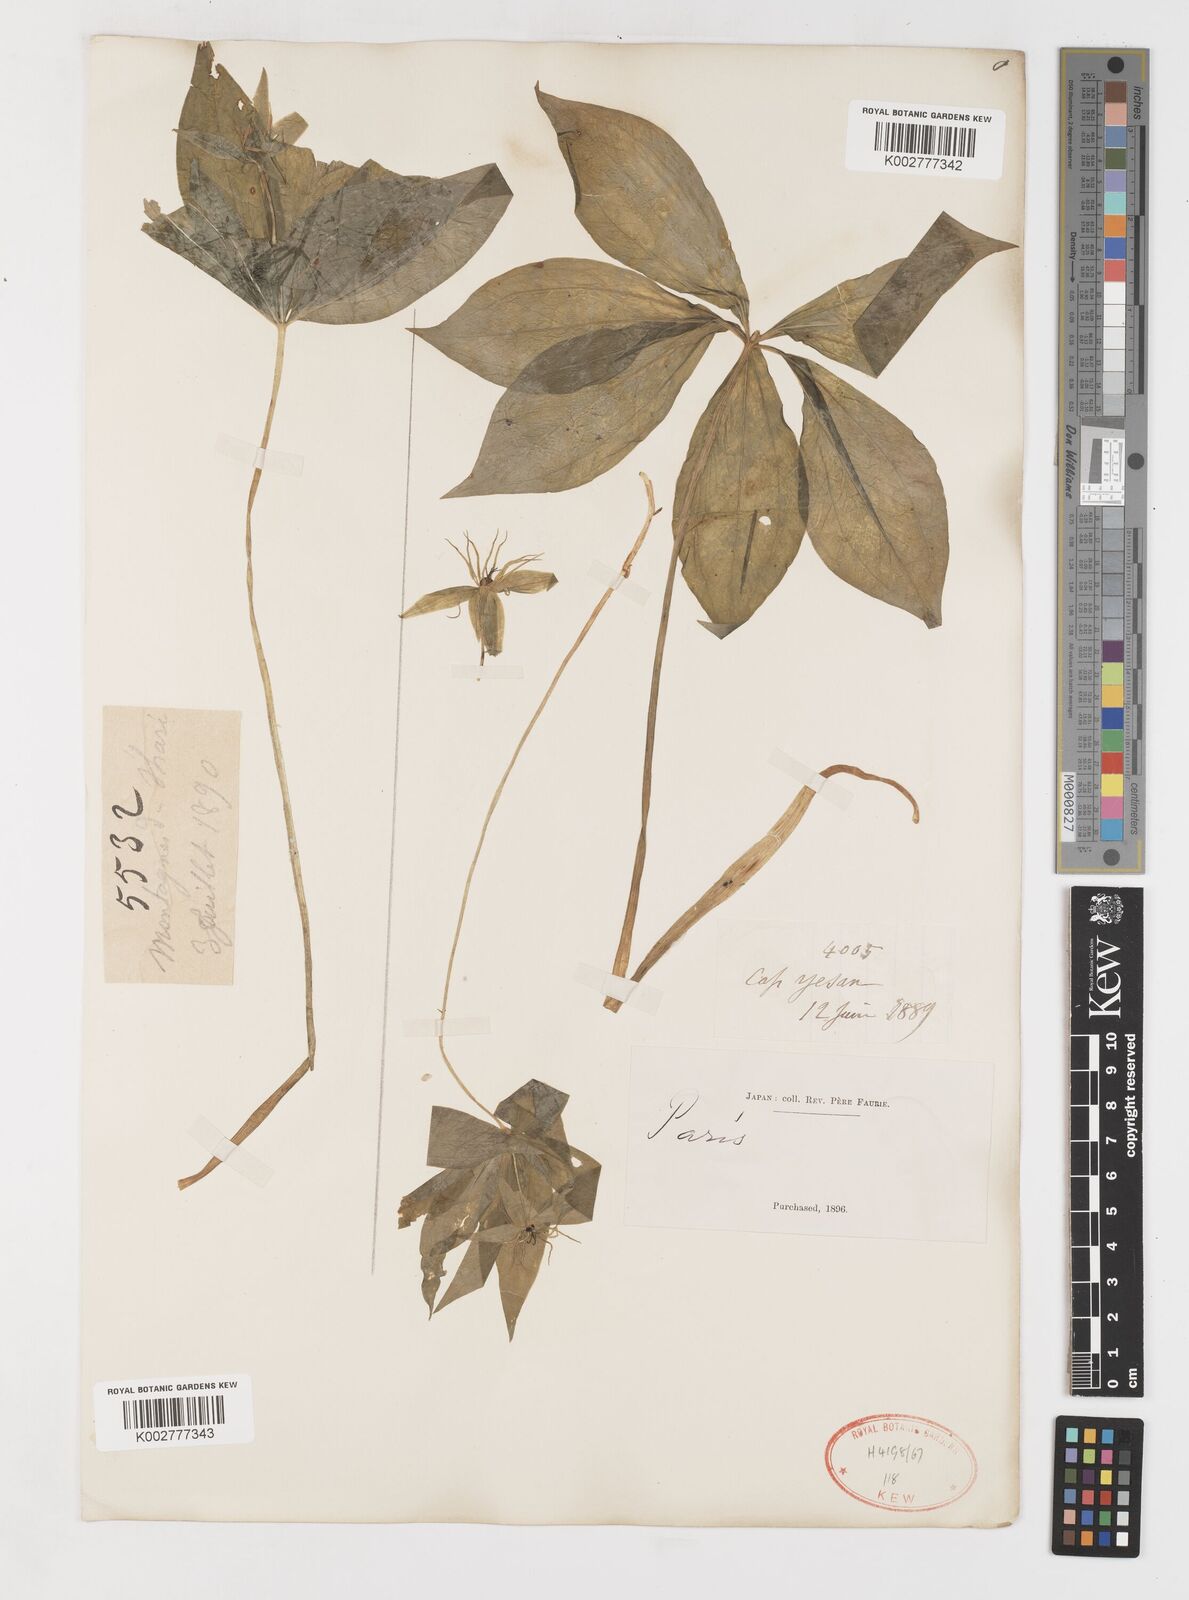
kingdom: Plantae
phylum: Tracheophyta
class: Liliopsida
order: Liliales
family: Melanthiaceae
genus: Paris
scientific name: Paris verticillata
